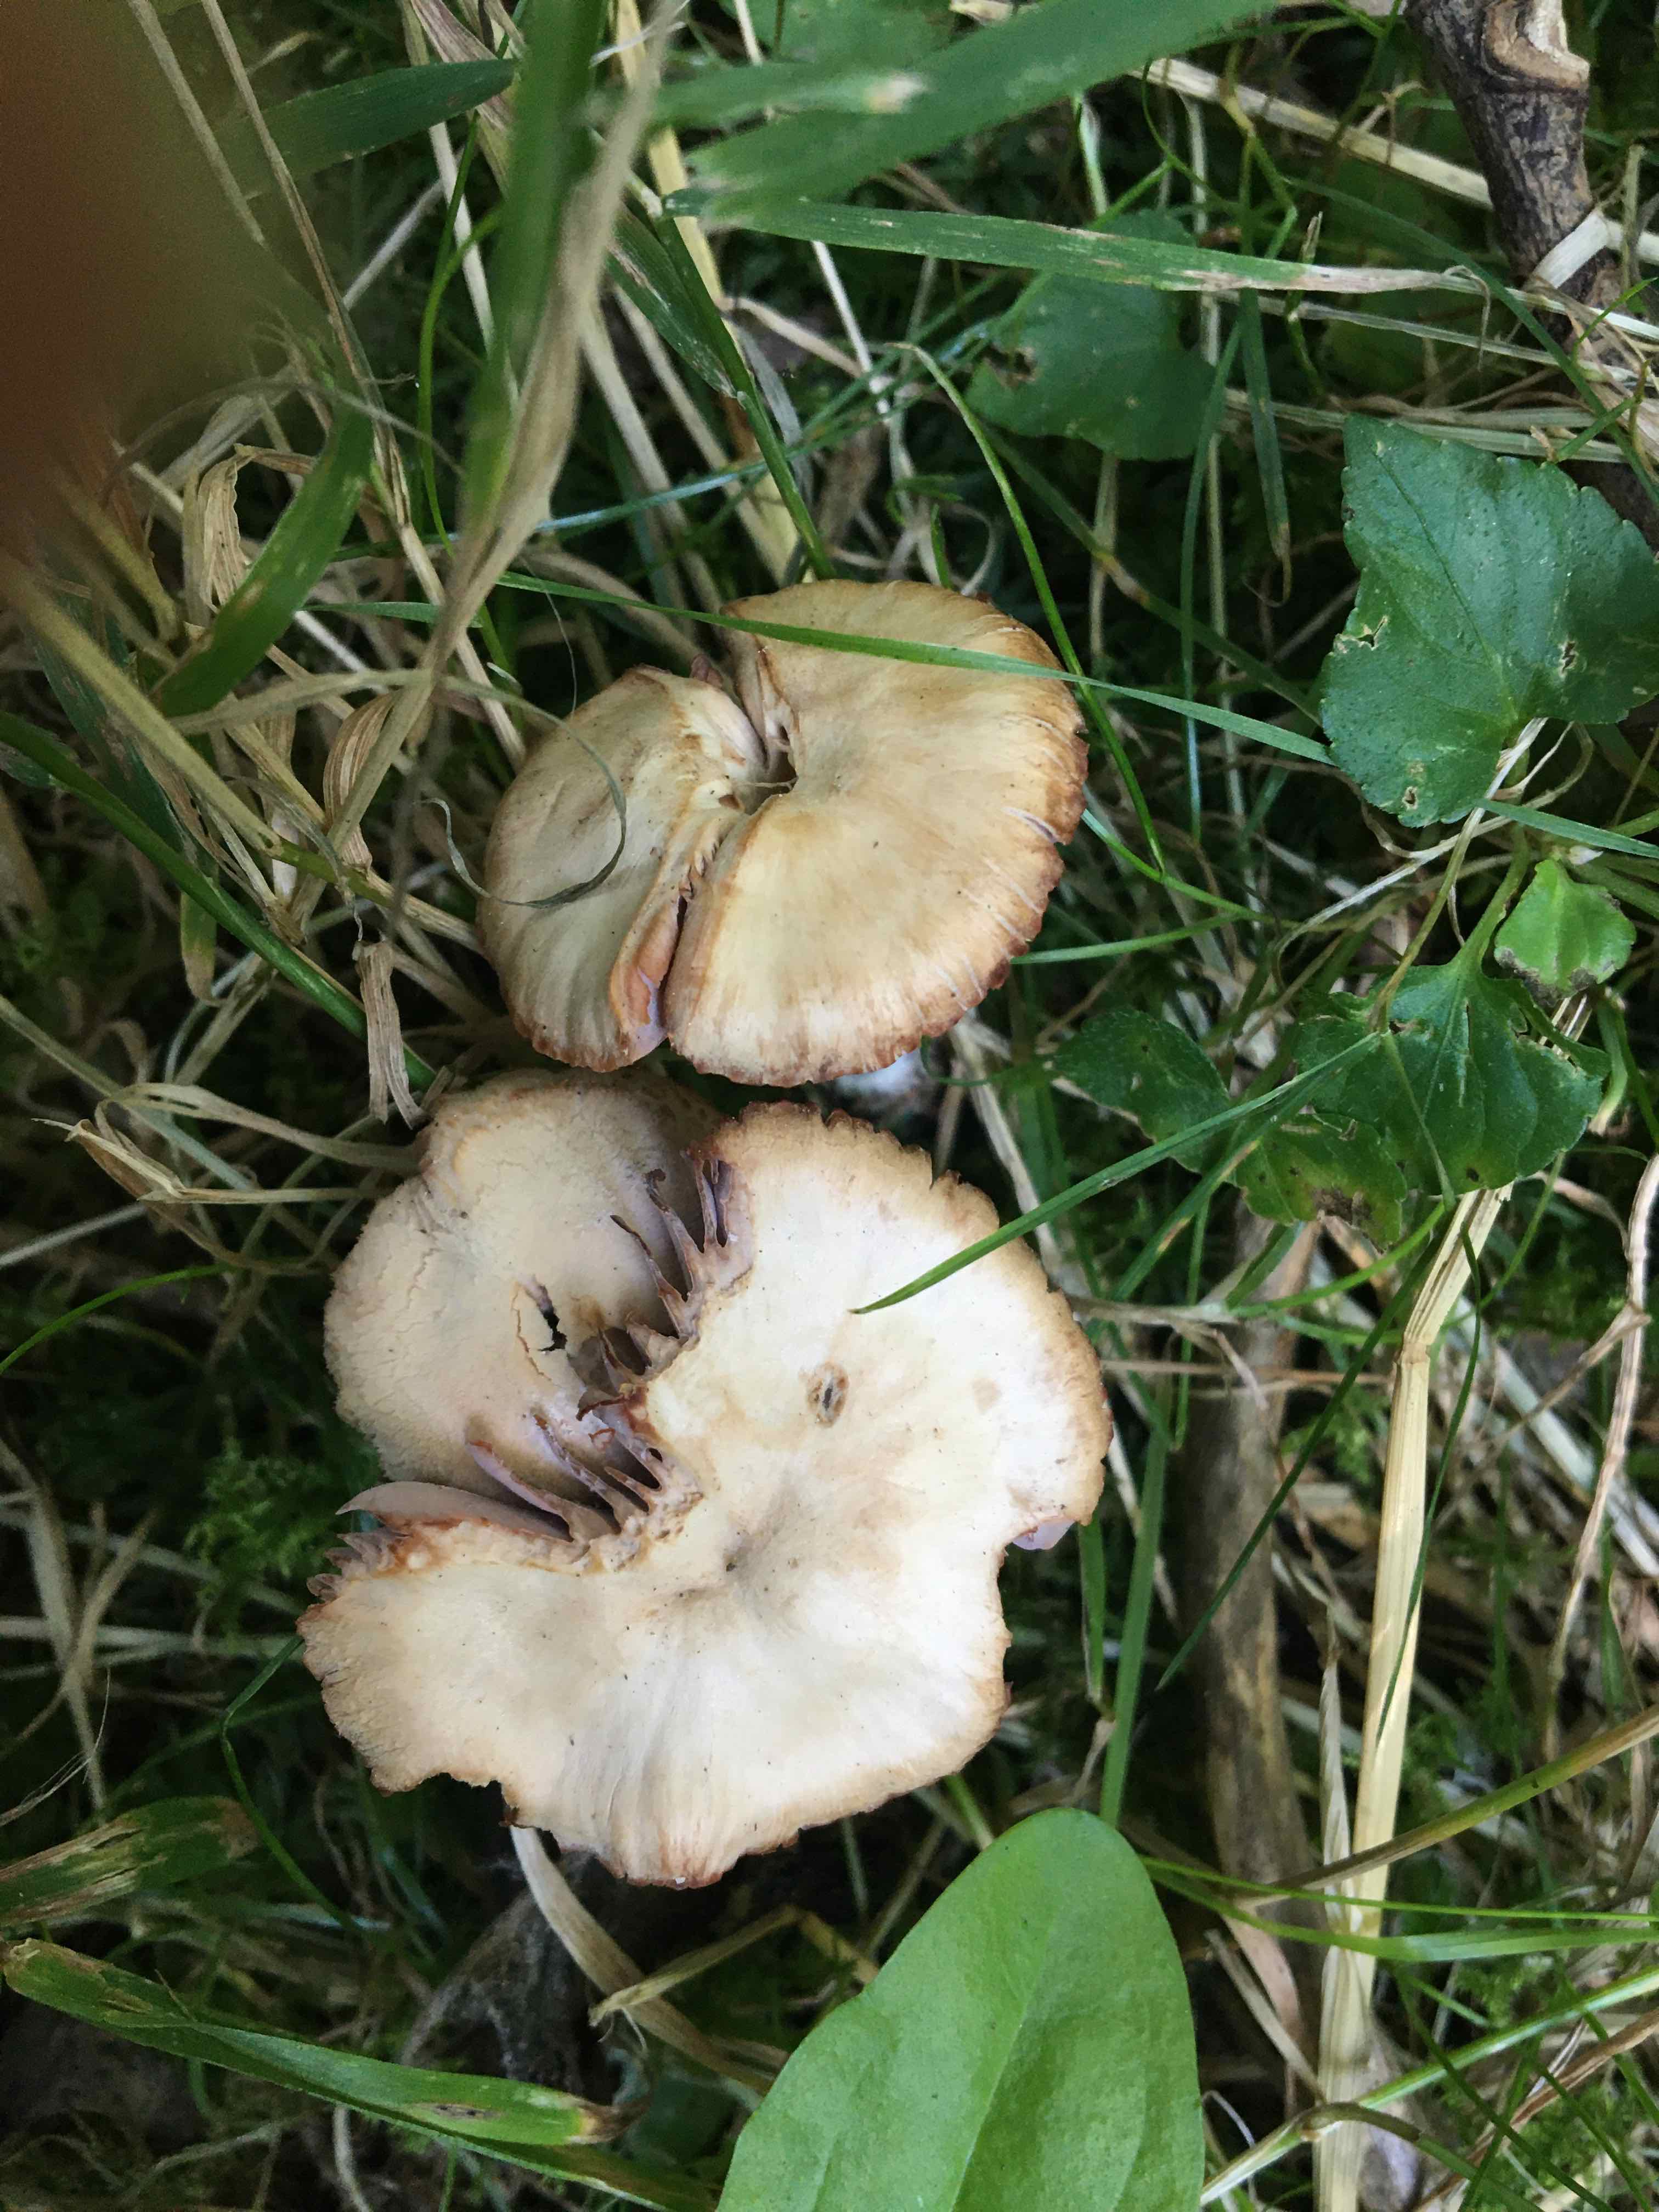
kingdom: Fungi
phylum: Basidiomycota
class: Agaricomycetes
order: Agaricales
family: Hydnangiaceae
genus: Laccaria
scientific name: Laccaria
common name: ametysthat
